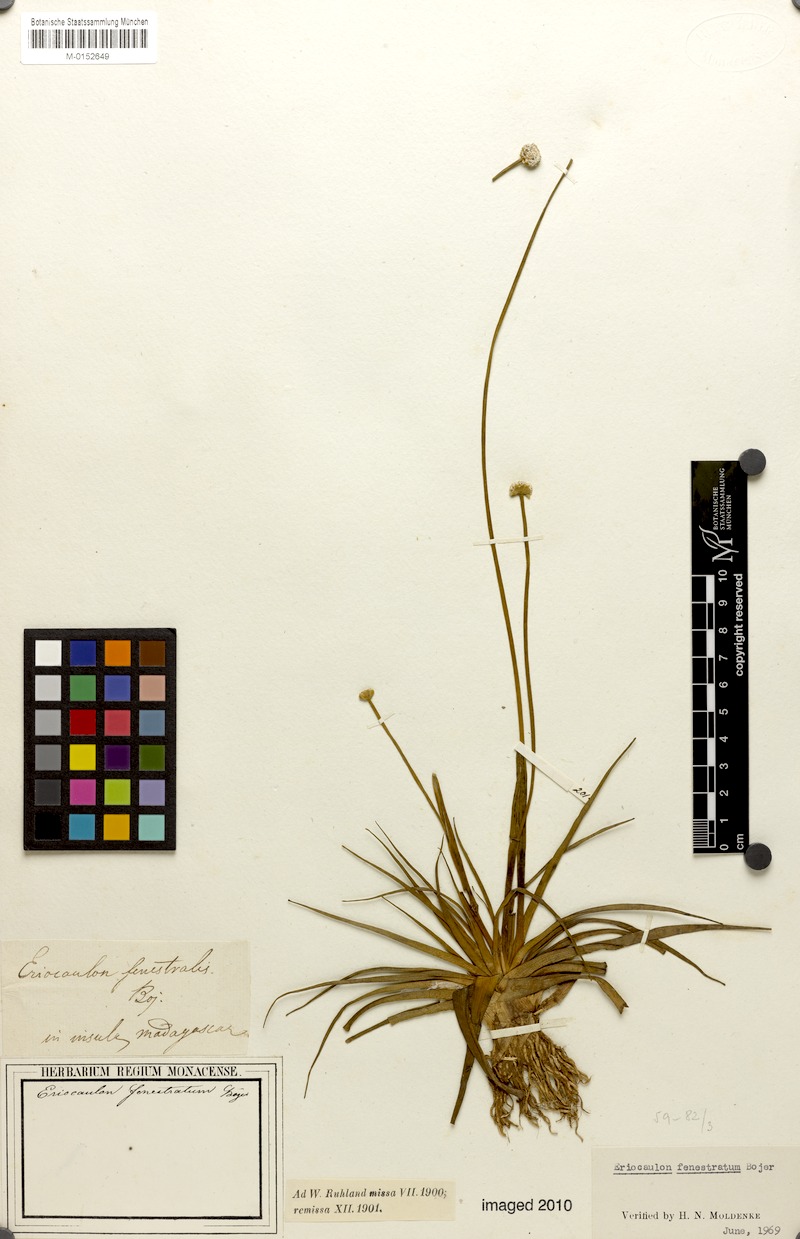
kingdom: Plantae
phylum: Tracheophyta
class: Liliopsida
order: Poales
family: Eriocaulaceae
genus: Eriocaulon
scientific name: Eriocaulon fenestratum
